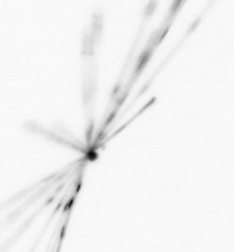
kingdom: Chromista
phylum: Ochrophyta
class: Bacillariophyceae
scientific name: Bacillariophyceae
